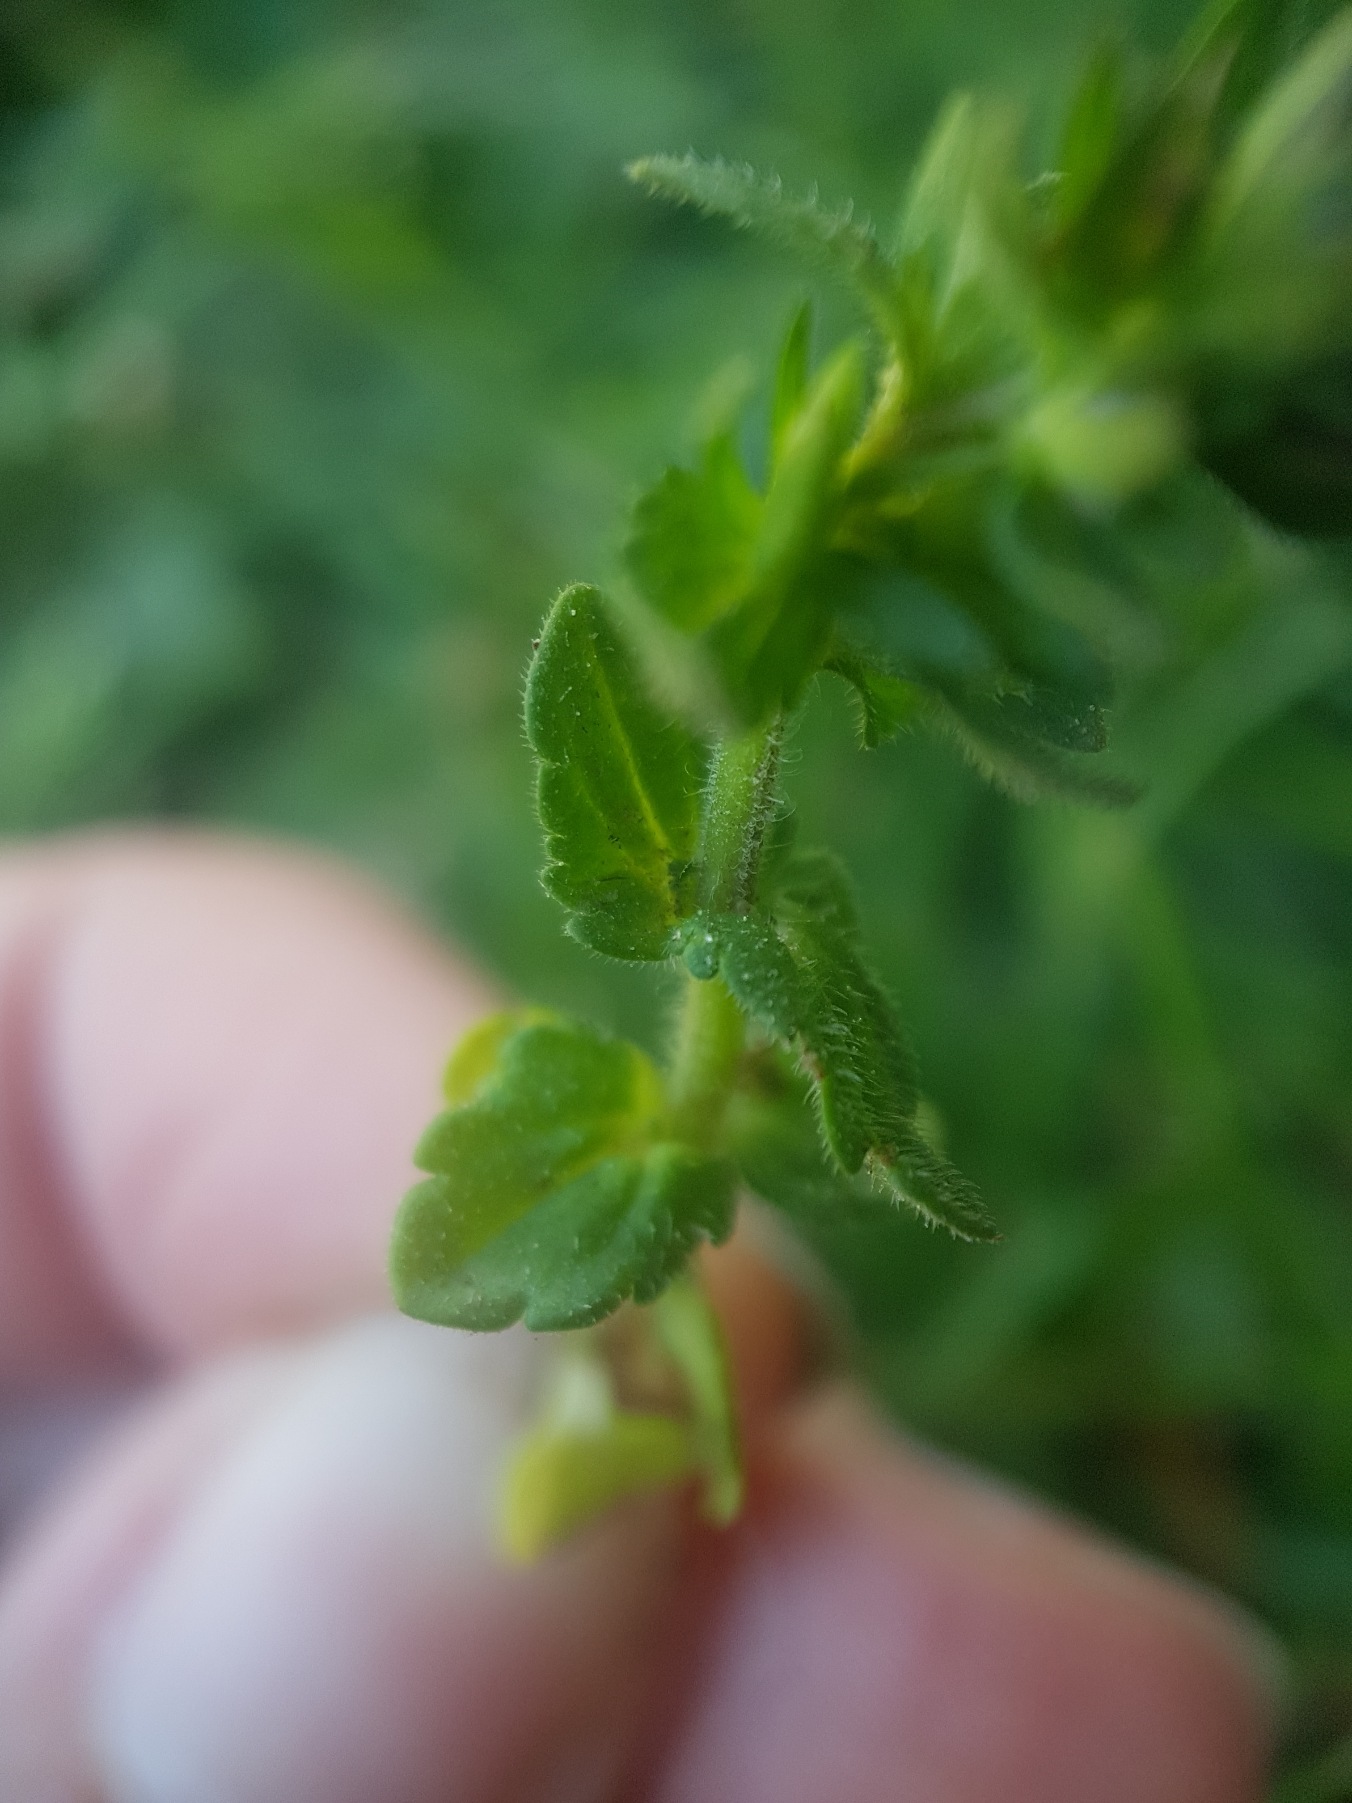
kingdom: Plantae
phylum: Tracheophyta
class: Magnoliopsida
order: Lamiales
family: Plantaginaceae
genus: Veronica
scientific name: Veronica arvensis
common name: Mark-ærenpris
